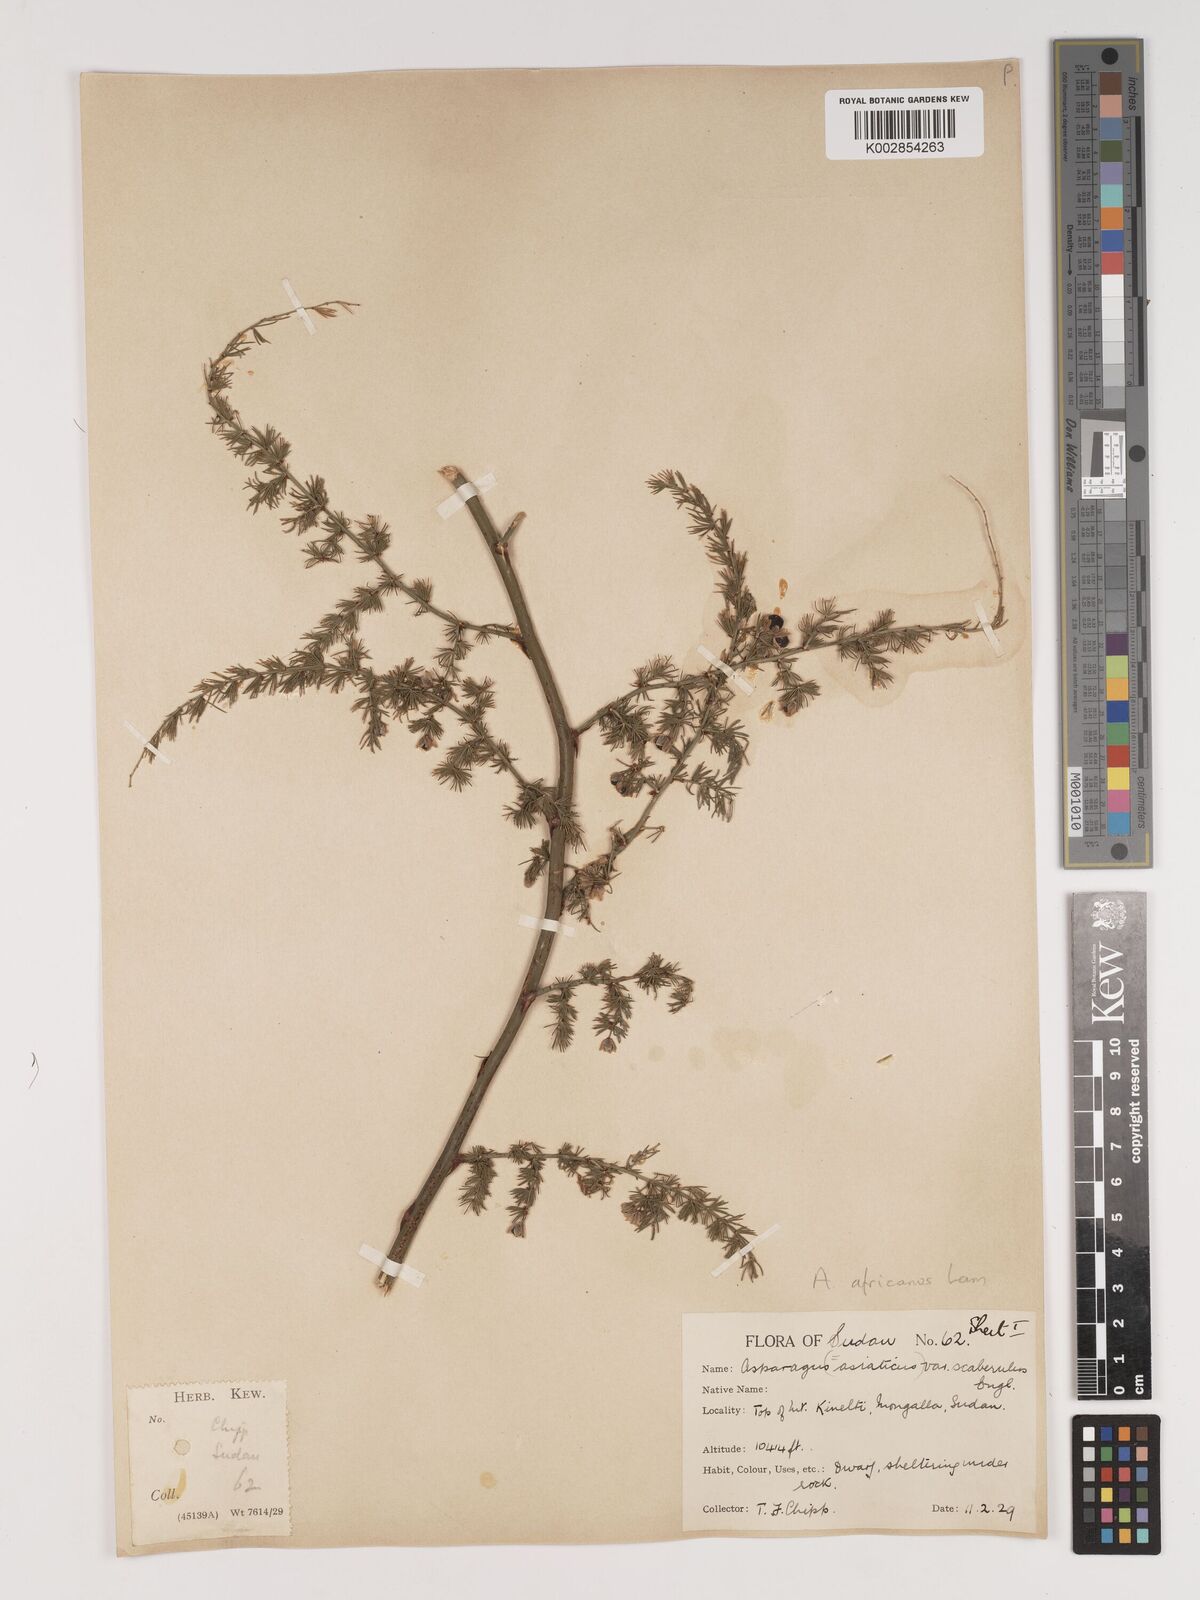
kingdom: Plantae
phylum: Tracheophyta
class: Liliopsida
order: Asparagales
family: Asparagaceae
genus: Asparagus
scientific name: Asparagus africanus
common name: Asparagus-fern
